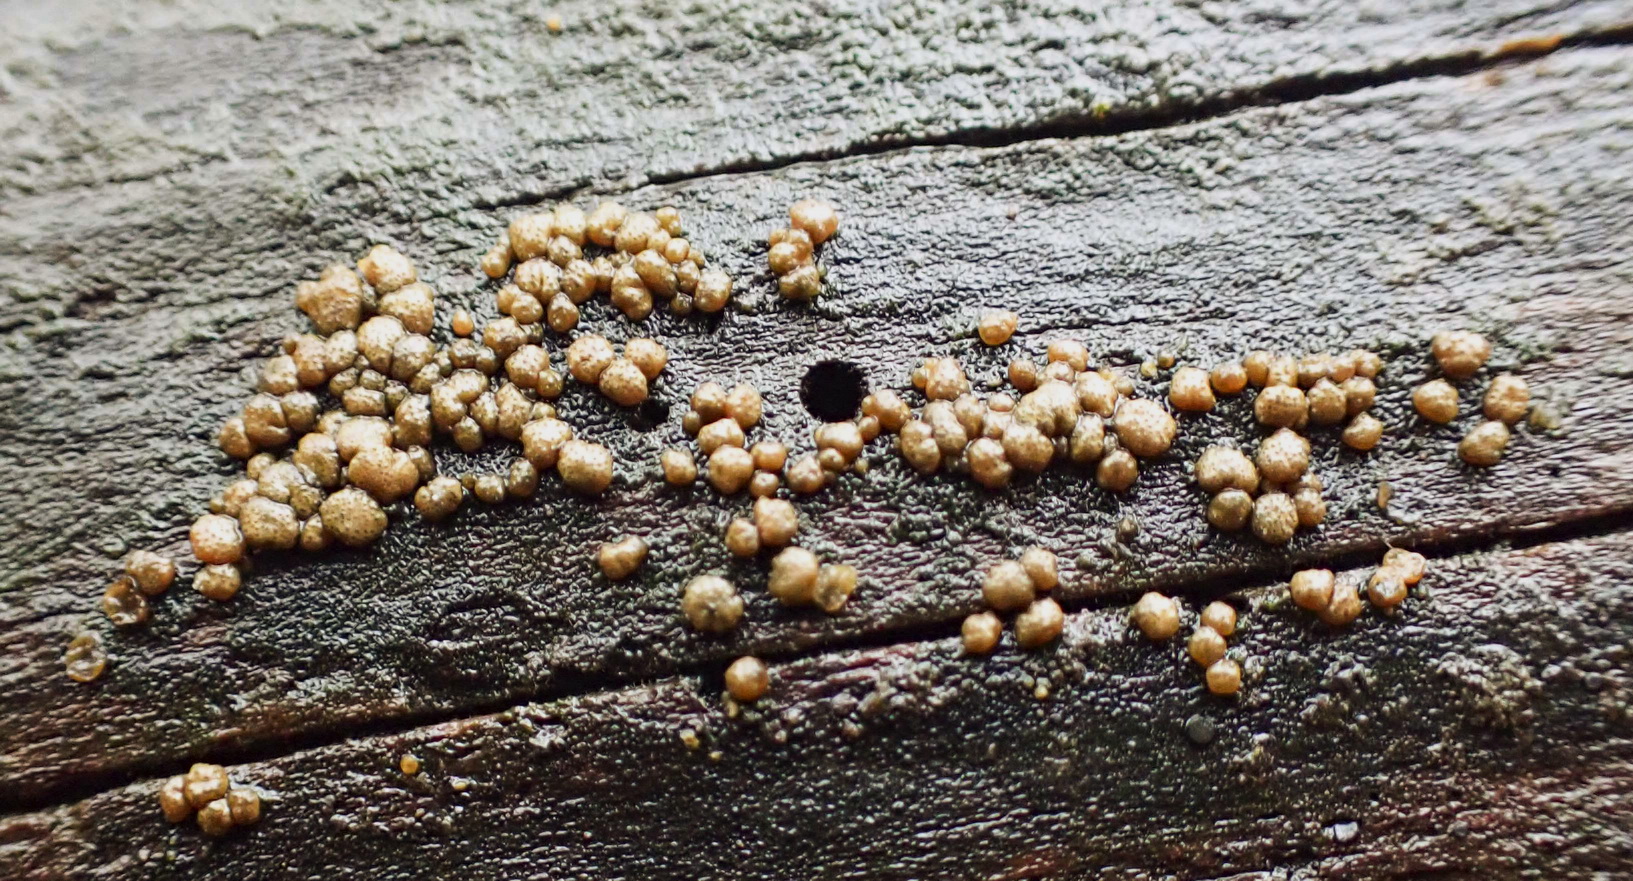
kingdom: Fungi
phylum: Ascomycota
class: Sordariomycetes
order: Hypocreales
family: Hypocreaceae
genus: Trichoderma
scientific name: Trichoderma
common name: kødkerne
